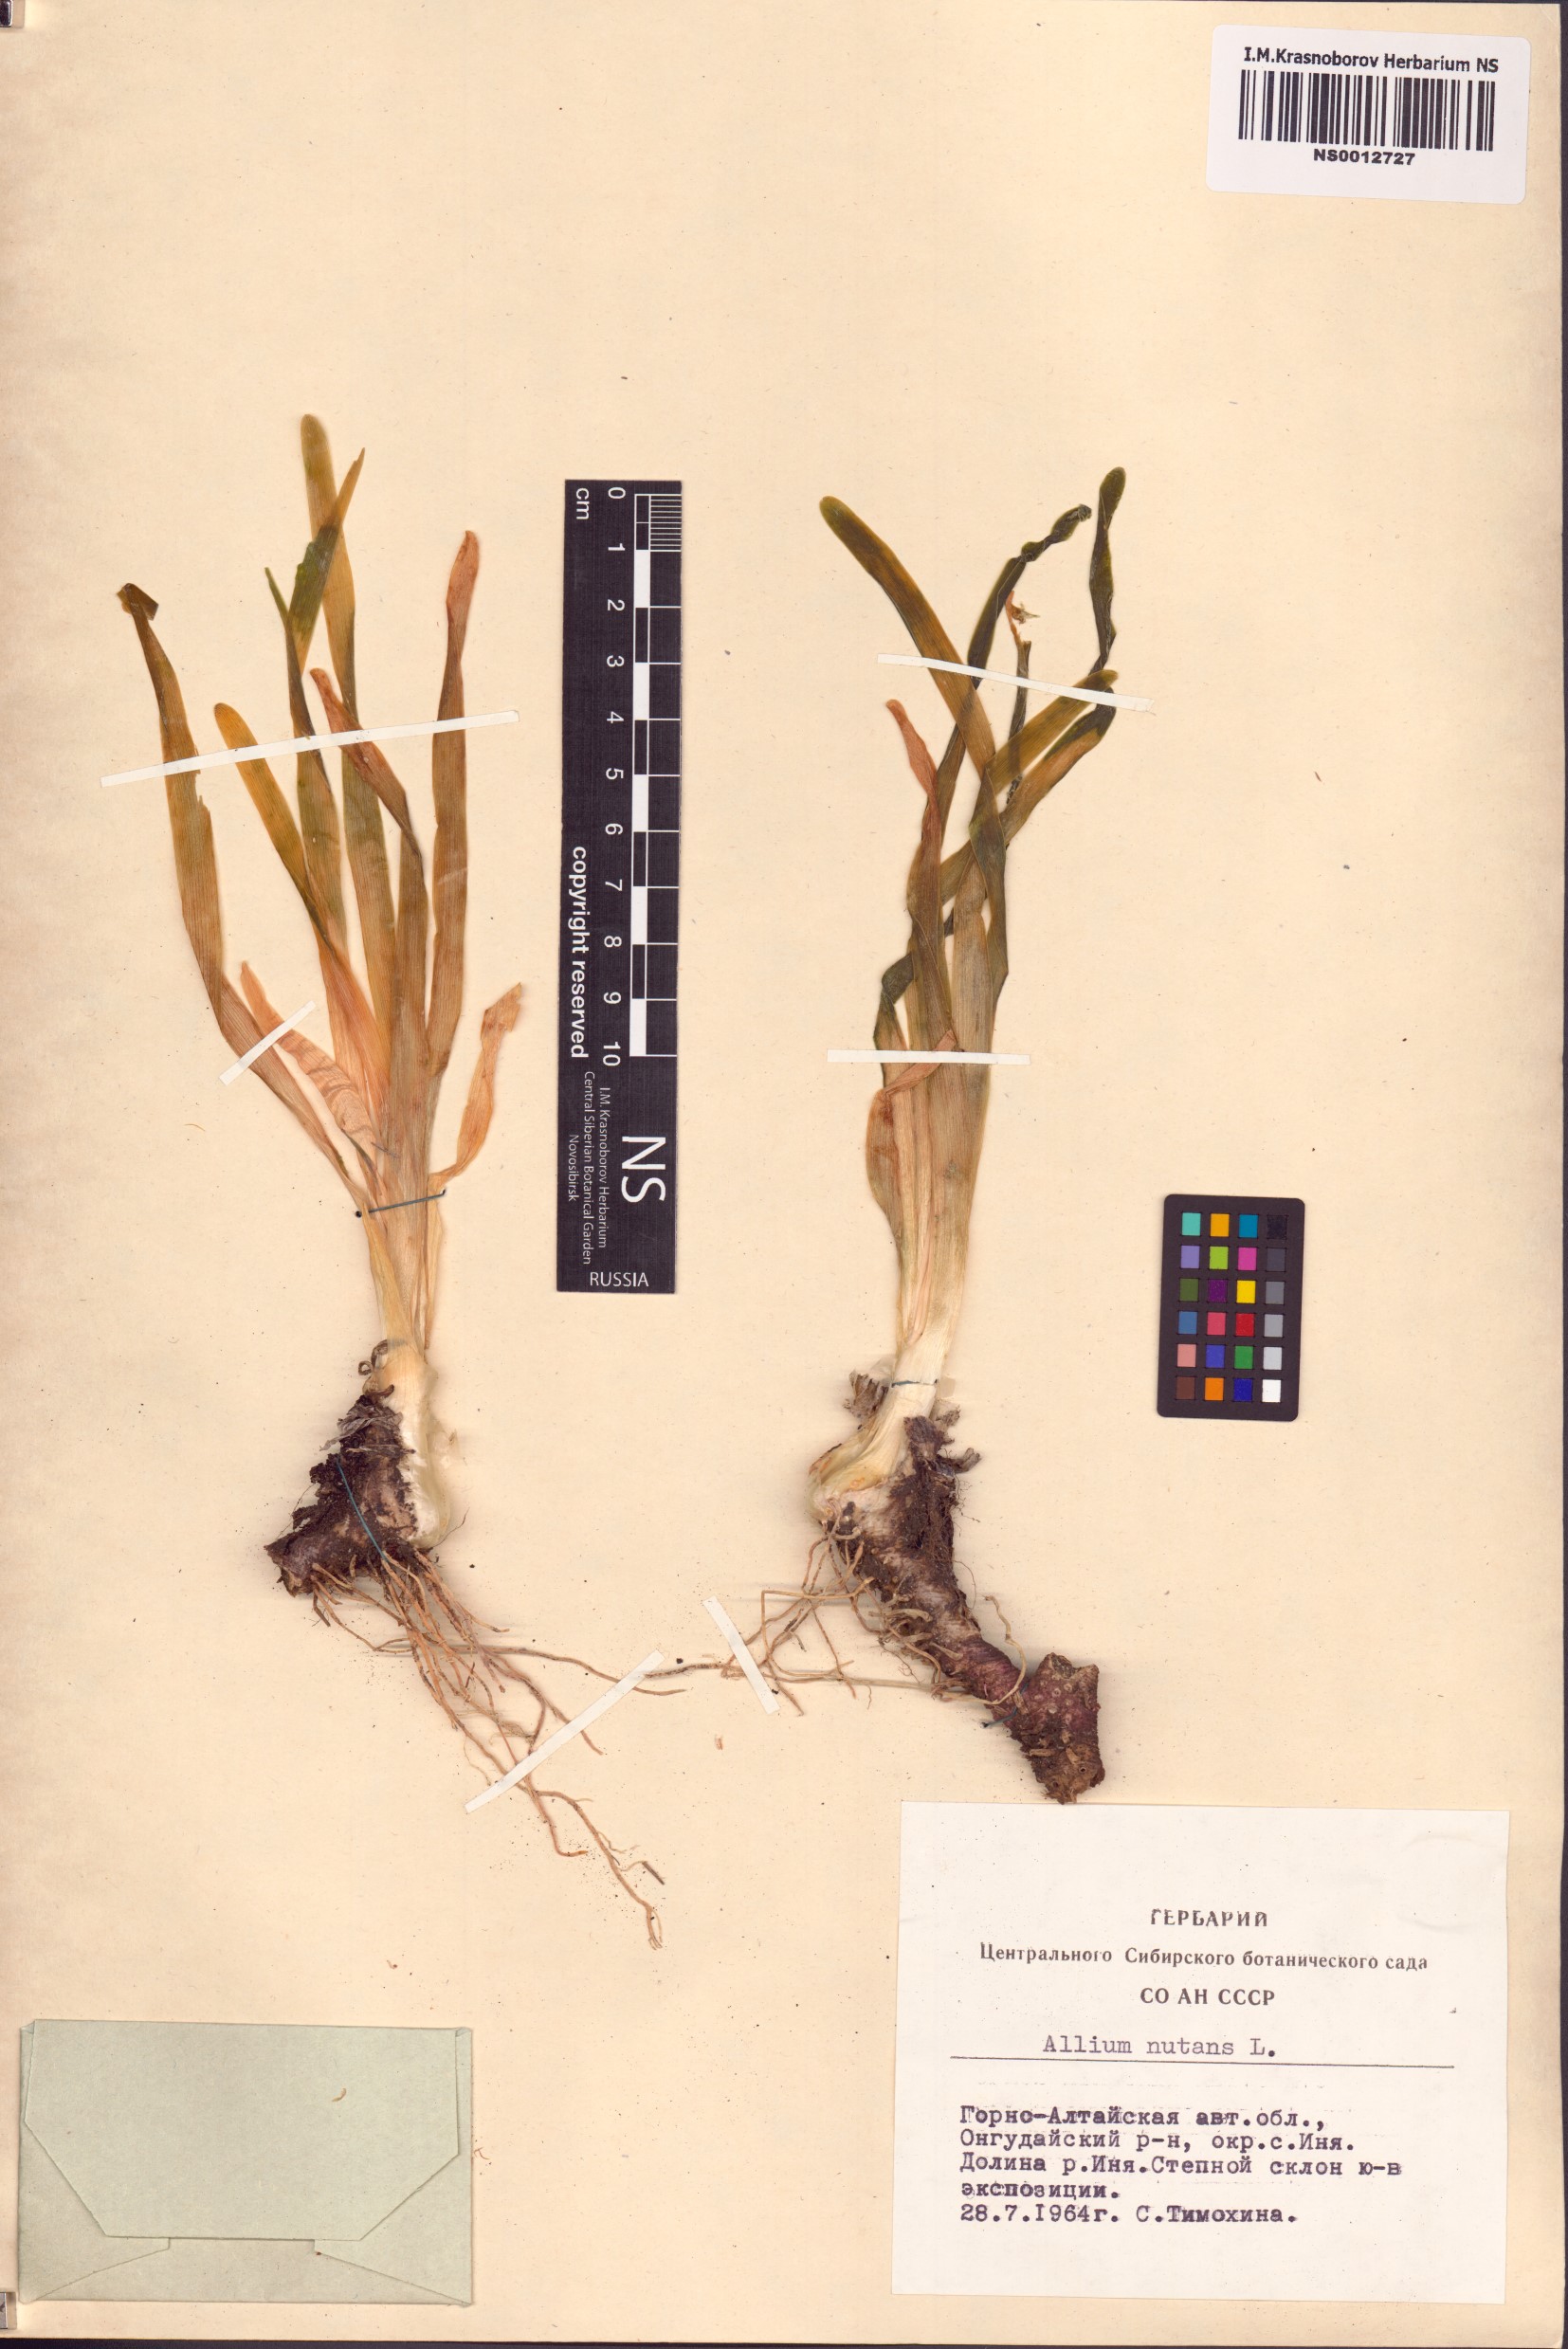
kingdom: Plantae
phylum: Tracheophyta
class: Liliopsida
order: Asparagales
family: Amaryllidaceae
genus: Allium
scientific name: Allium nutans
